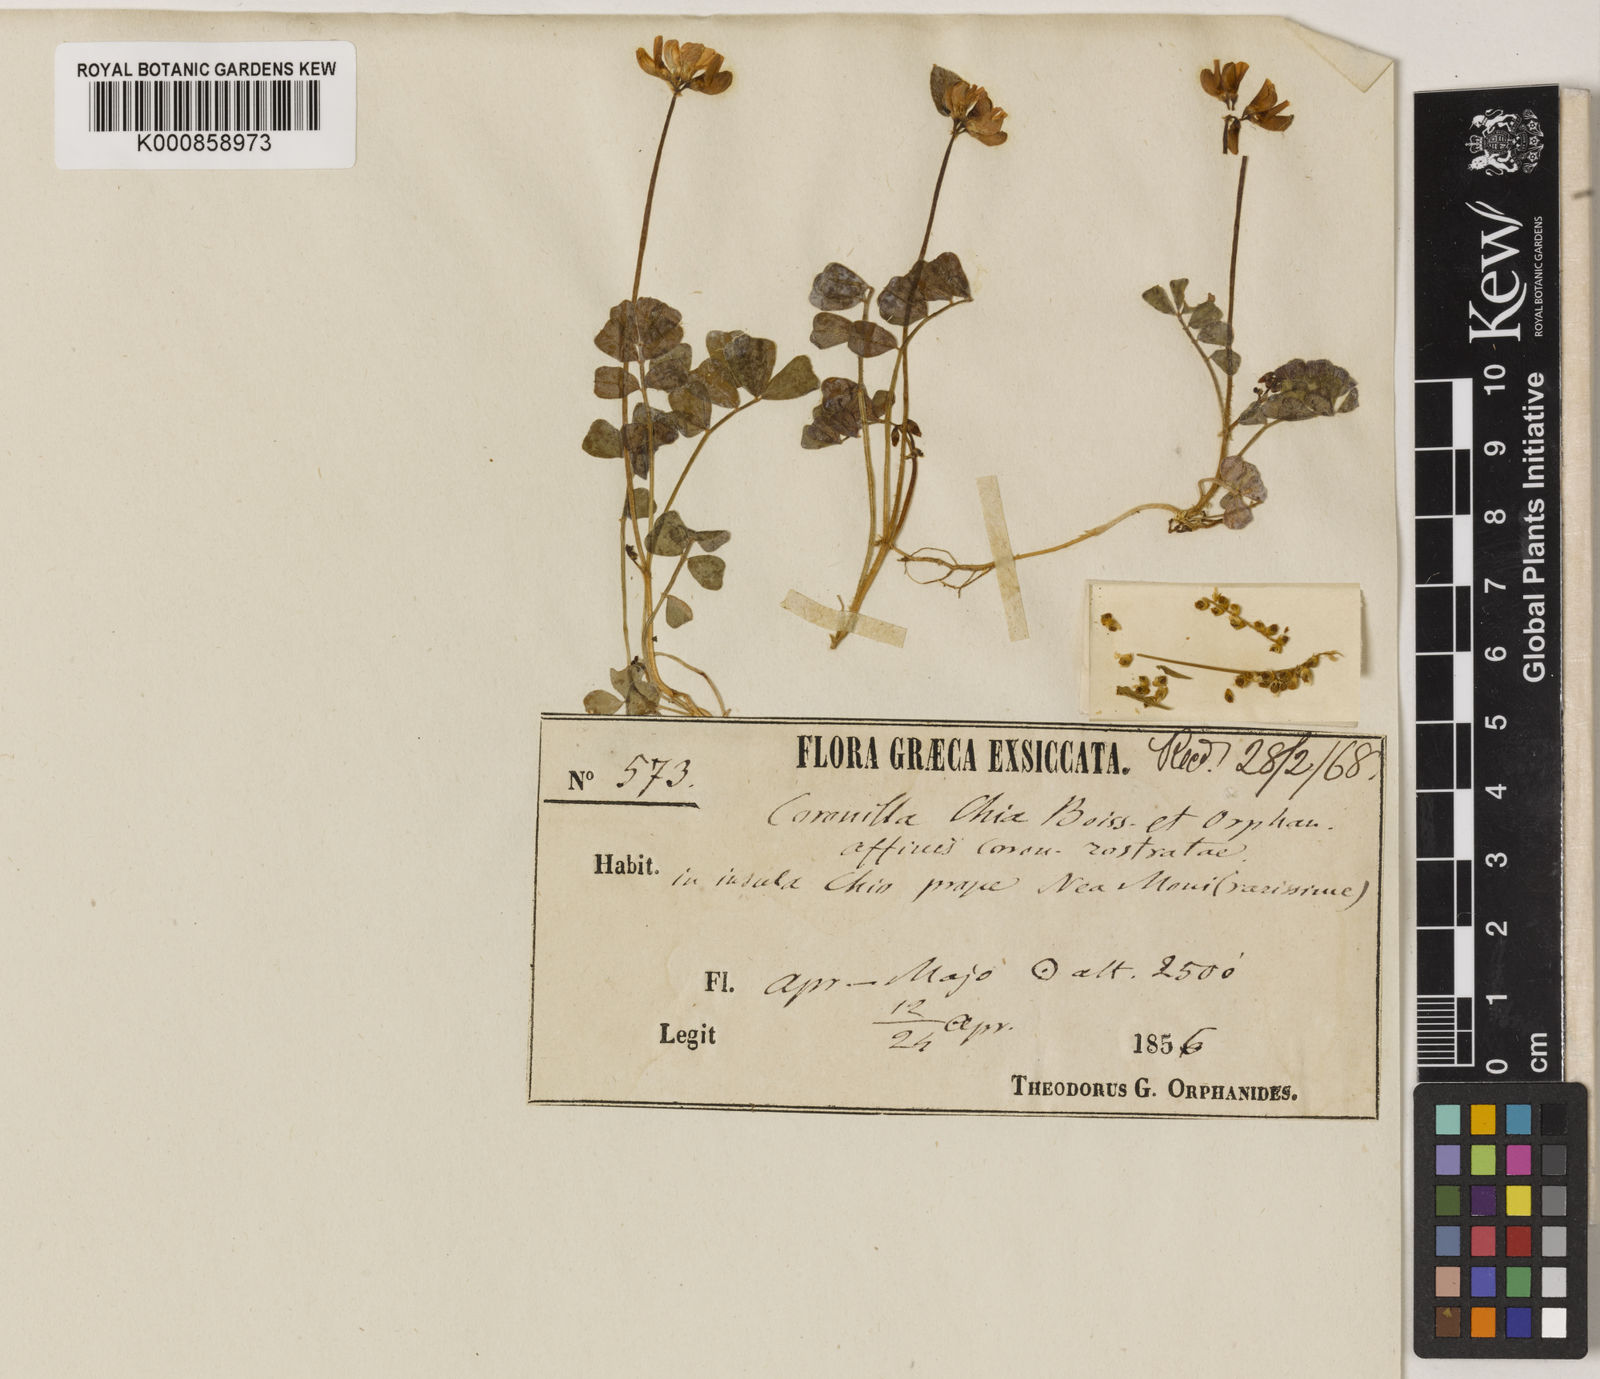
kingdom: Plantae
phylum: Tracheophyta
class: Magnoliopsida
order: Fabales
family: Fabaceae
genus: Coronilla
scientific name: Coronilla rostrata
